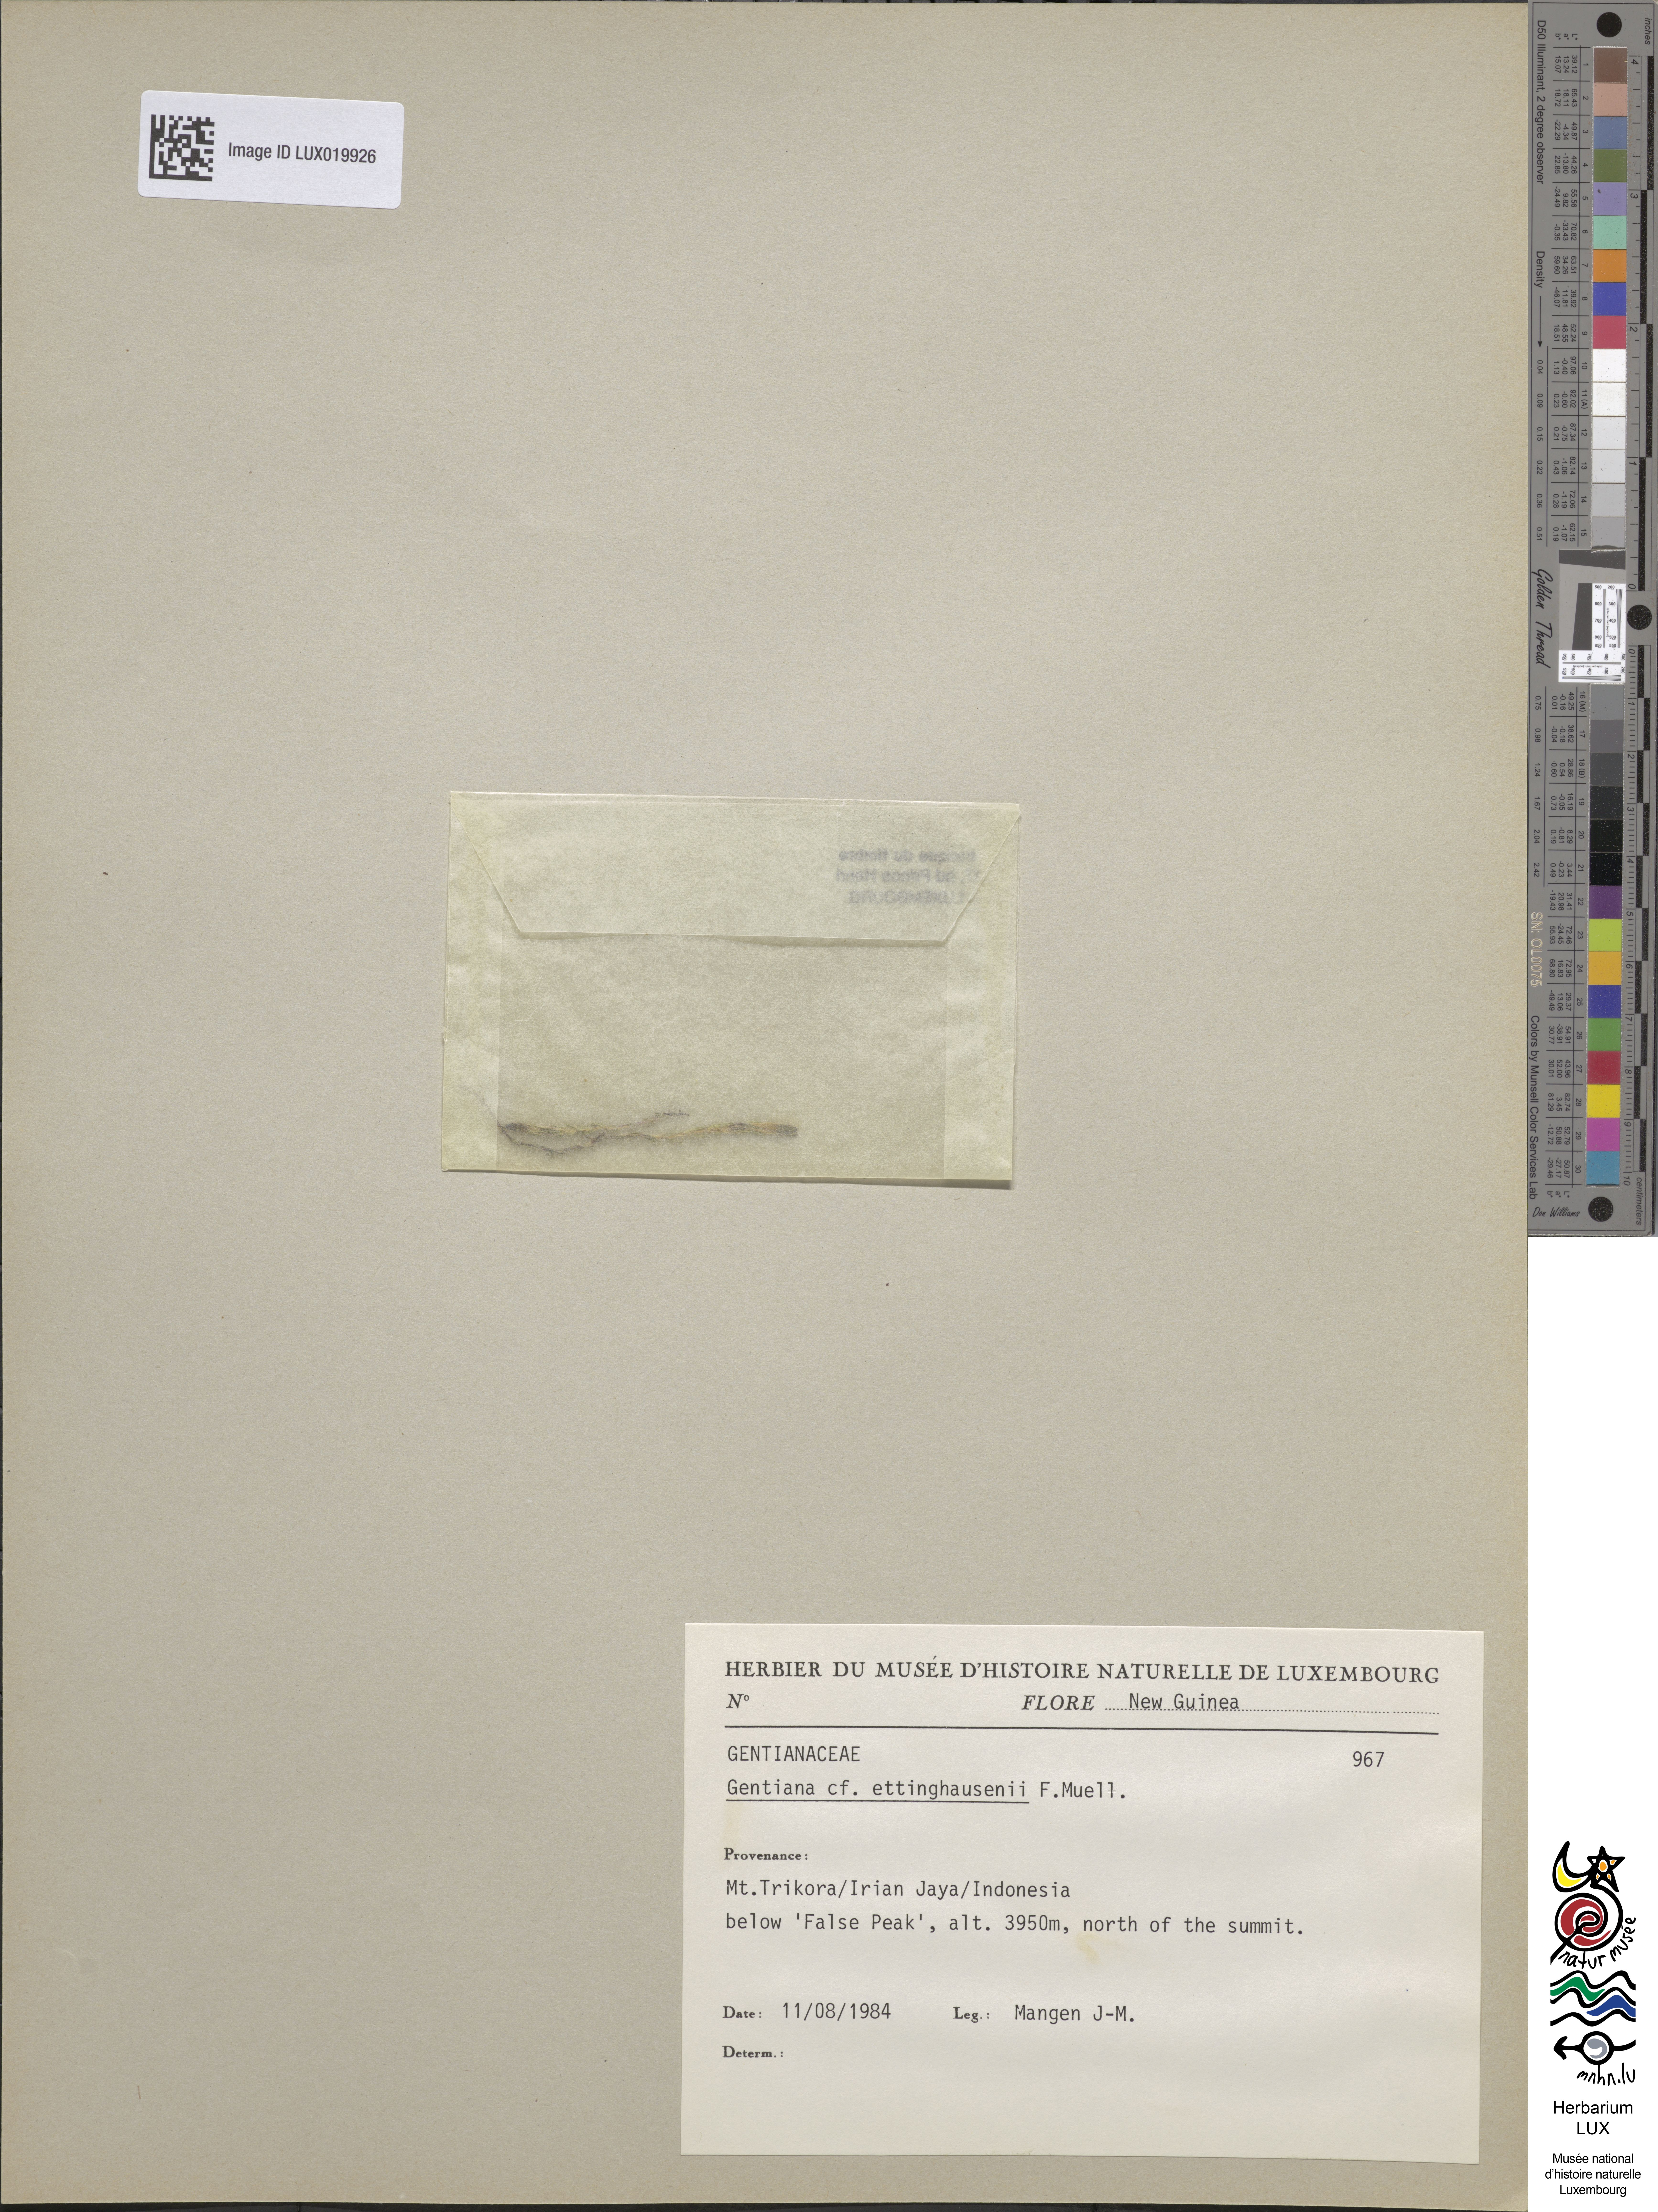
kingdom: Plantae
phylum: Tracheophyta
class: Magnoliopsida
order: Gentianales
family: Gentianaceae
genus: Gentiana
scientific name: Gentiana ettingshausenii
